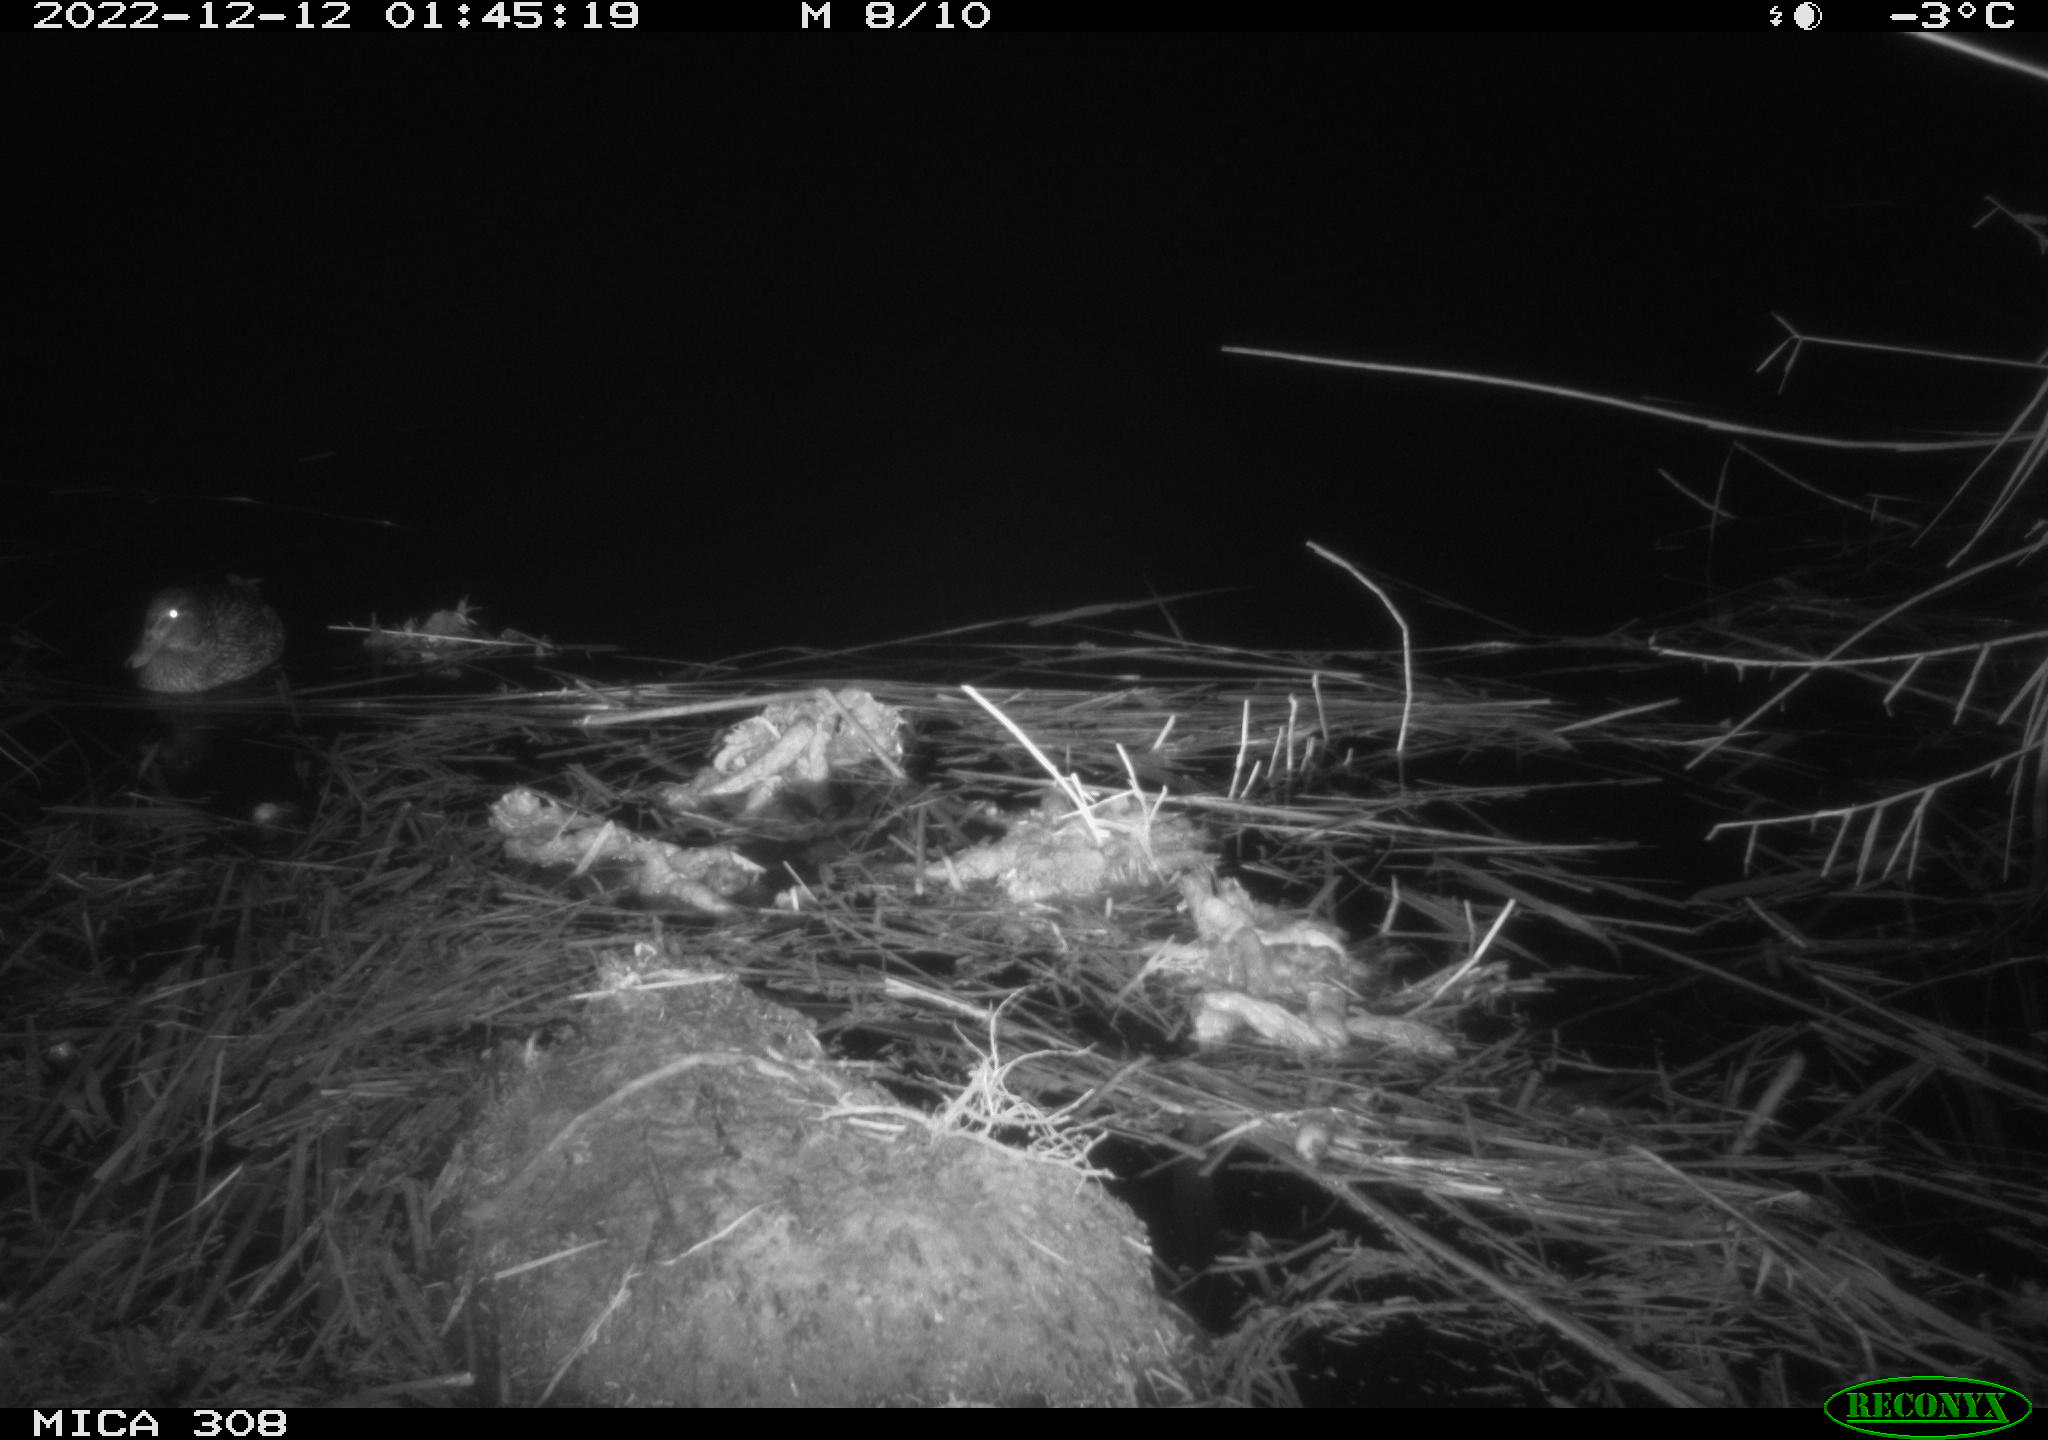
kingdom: Animalia
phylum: Chordata
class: Aves
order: Anseriformes
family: Anatidae
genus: Anas
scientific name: Anas
